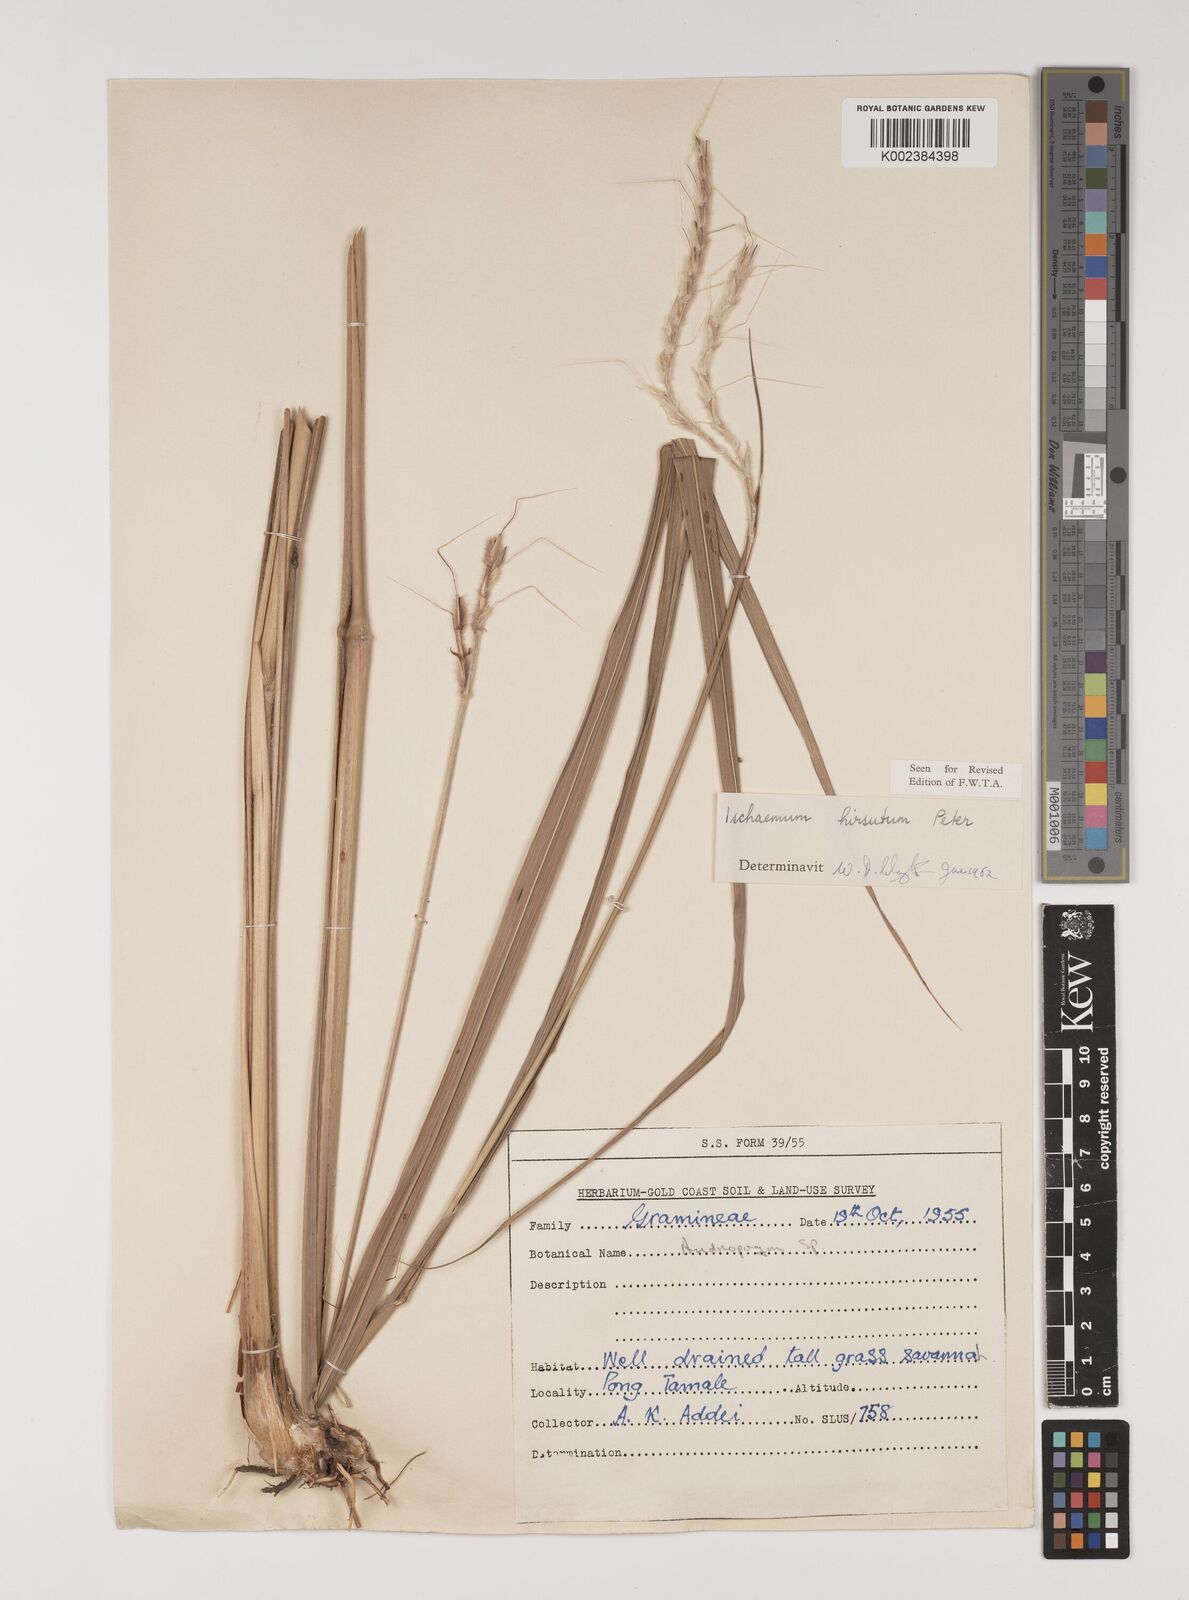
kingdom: Plantae
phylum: Tracheophyta
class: Liliopsida
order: Poales
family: Poaceae
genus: Rottboellia
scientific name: Rottboellia villosa
